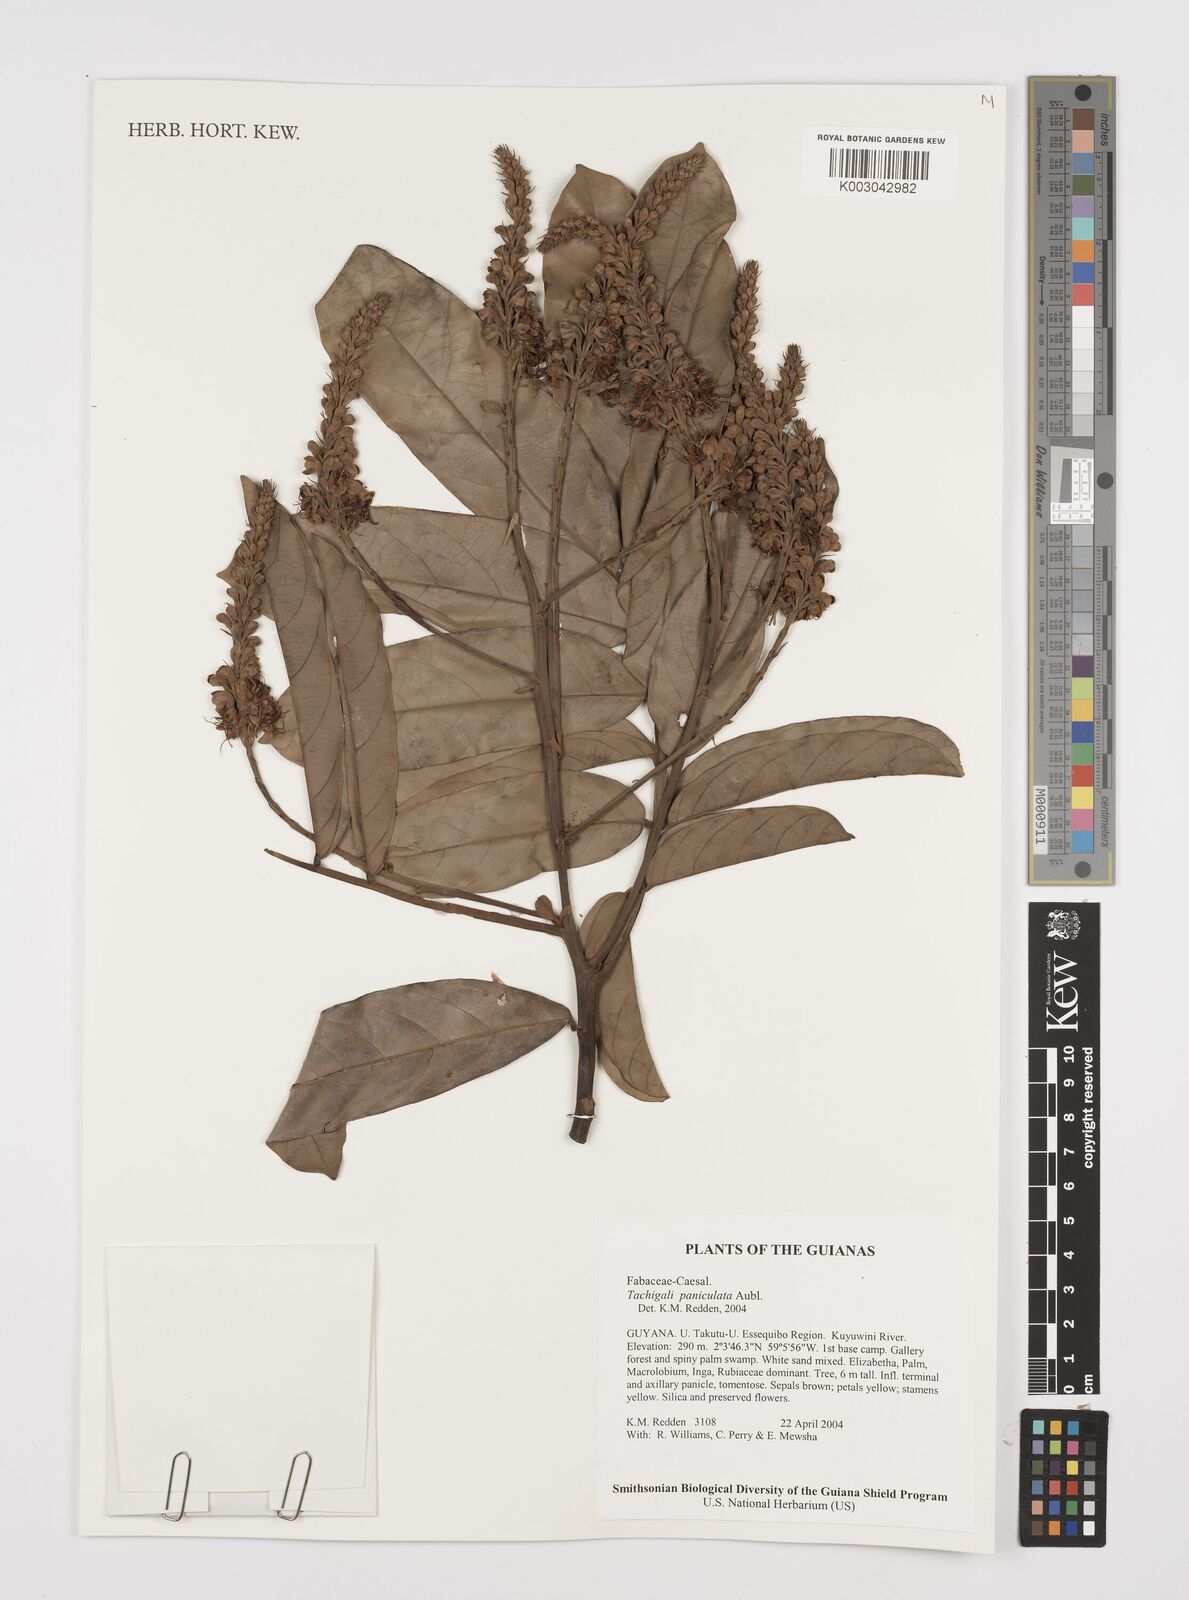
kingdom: Plantae
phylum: Tracheophyta
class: Magnoliopsida
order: Fabales
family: Fabaceae
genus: Tachigali
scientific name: Tachigali paniculata
